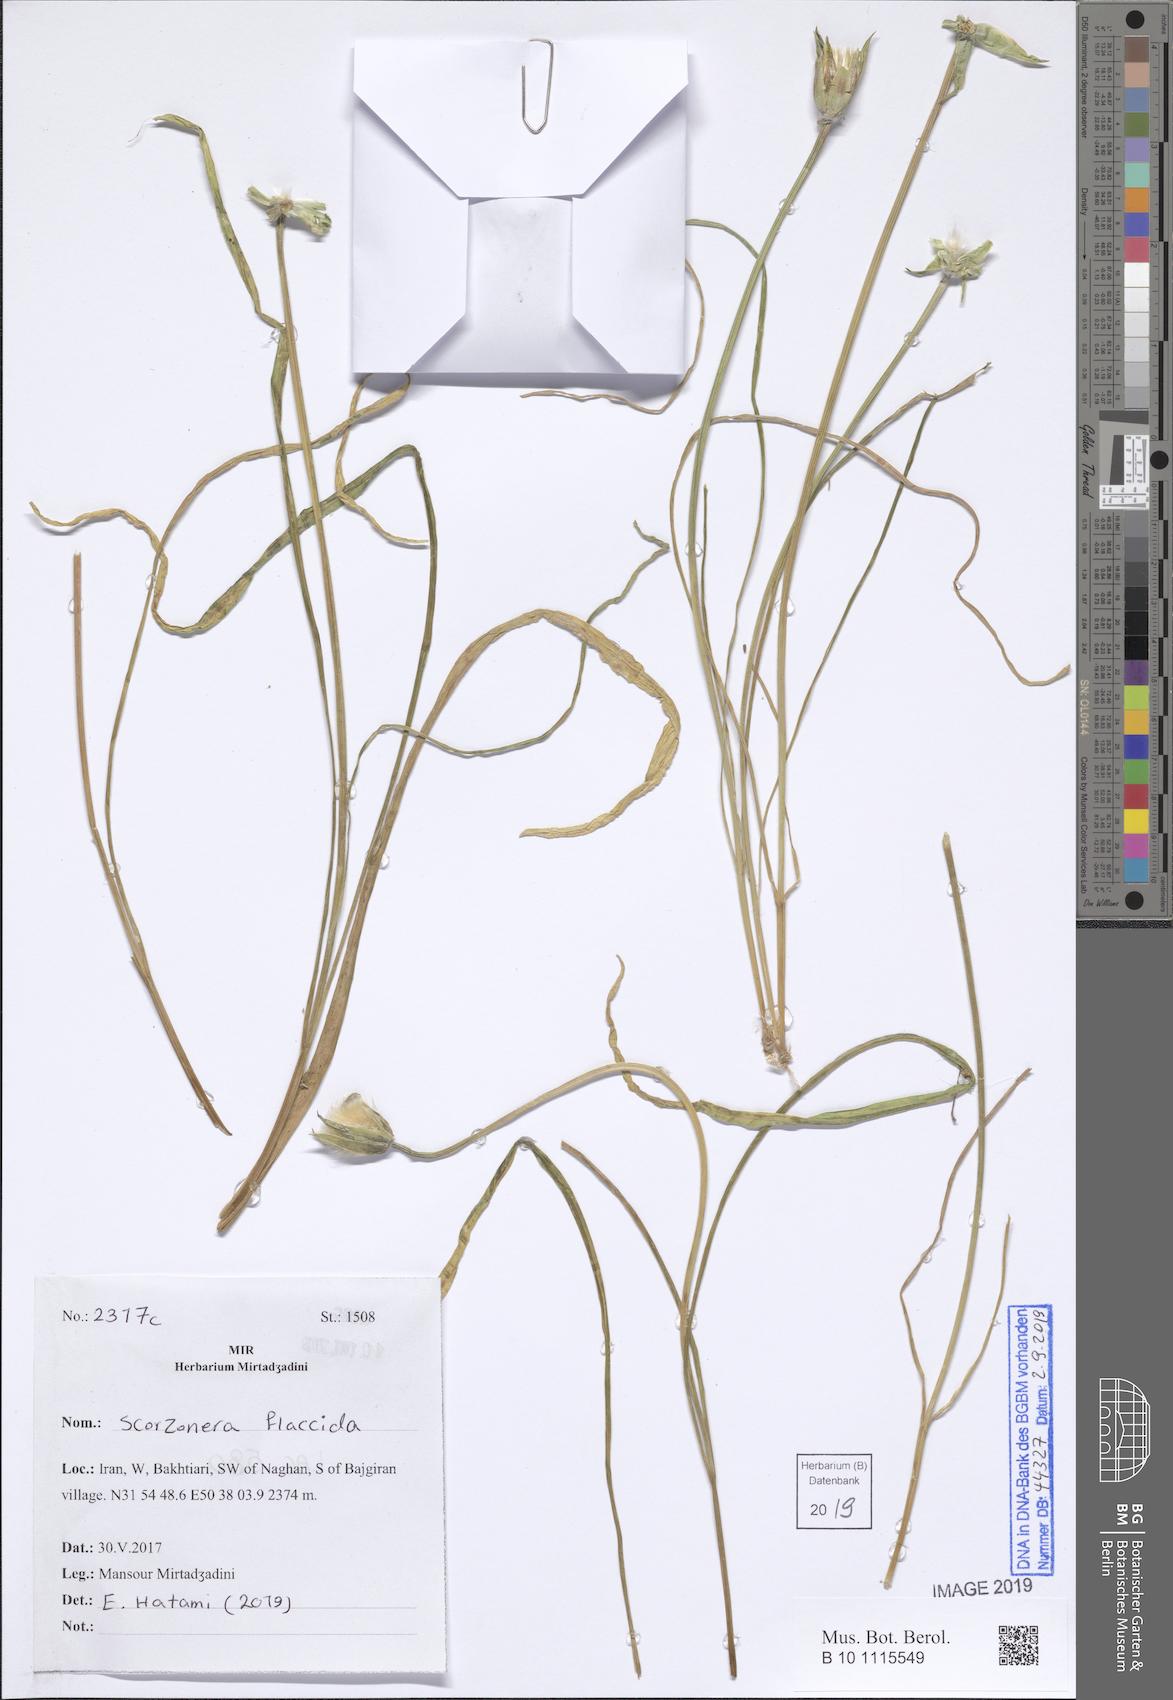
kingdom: Plantae
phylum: Tracheophyta
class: Magnoliopsida
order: Asterales
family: Asteraceae
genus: Gelasia
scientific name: Gelasia
